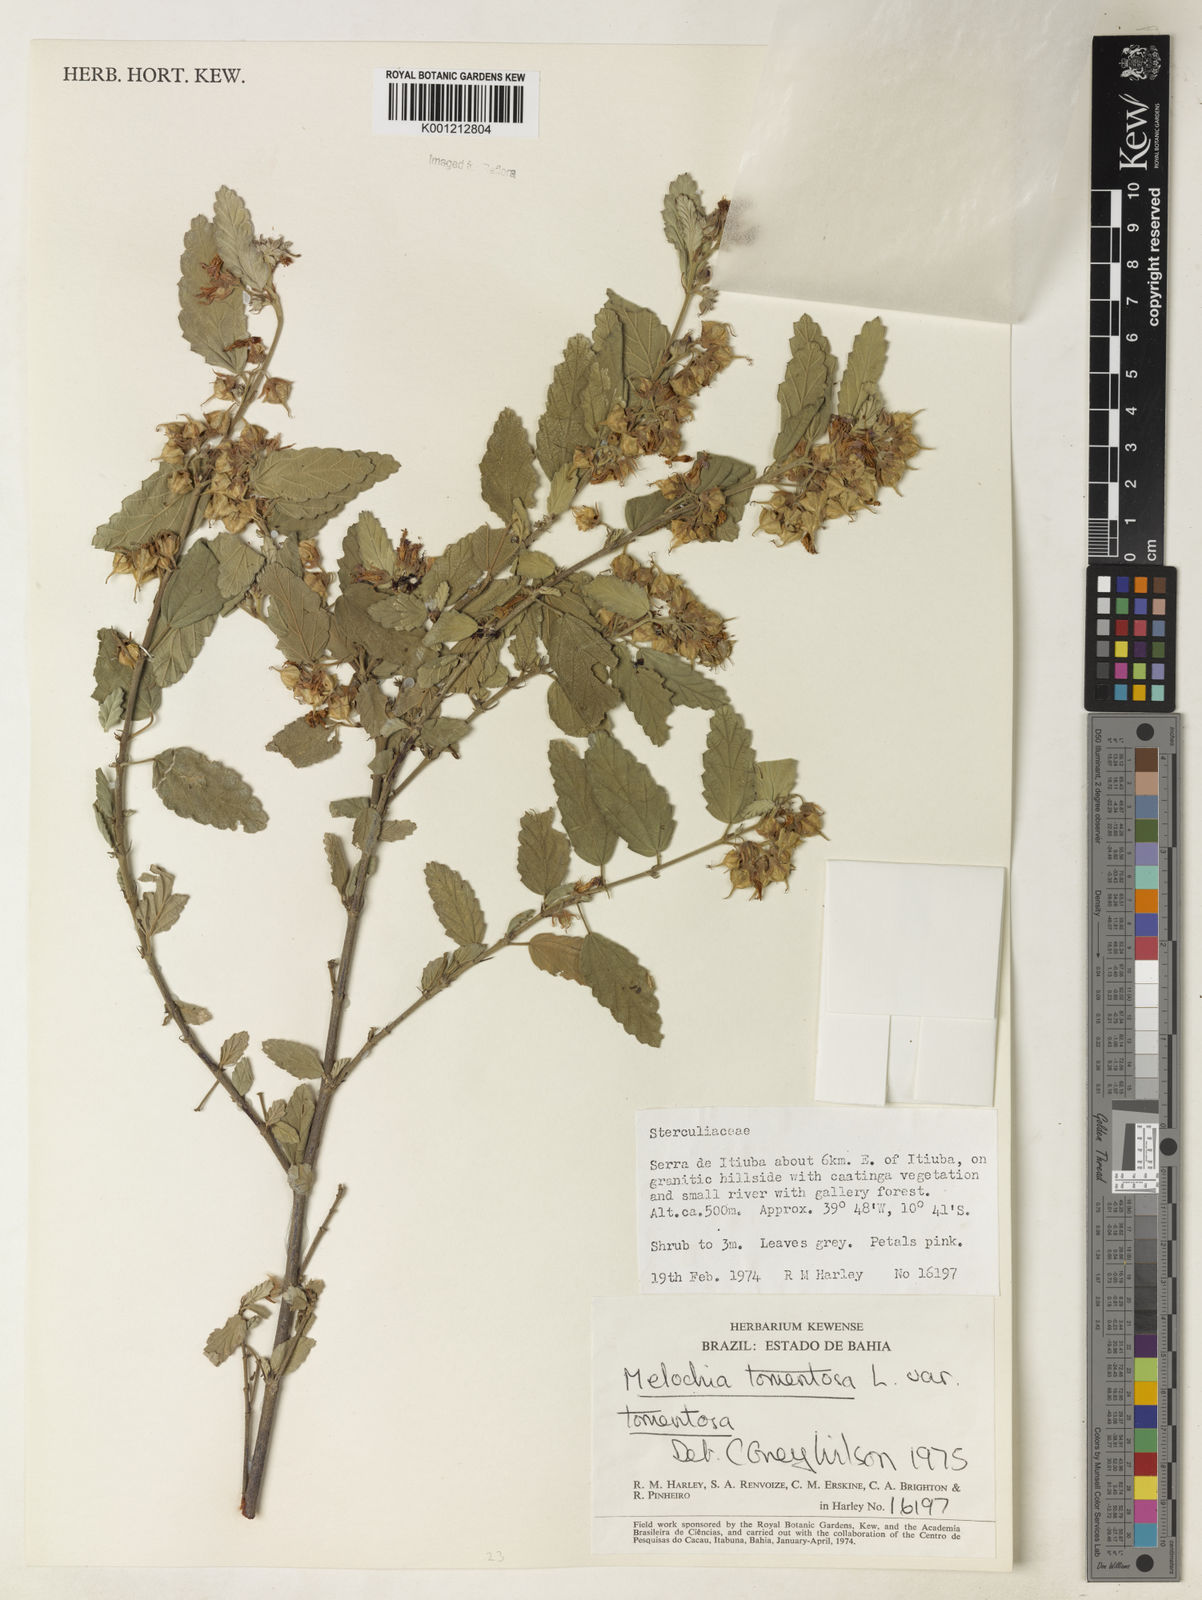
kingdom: Plantae
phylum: Tracheophyta
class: Magnoliopsida
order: Malvales
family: Malvaceae
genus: Melochia
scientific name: Melochia tomentosa
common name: Black torch
